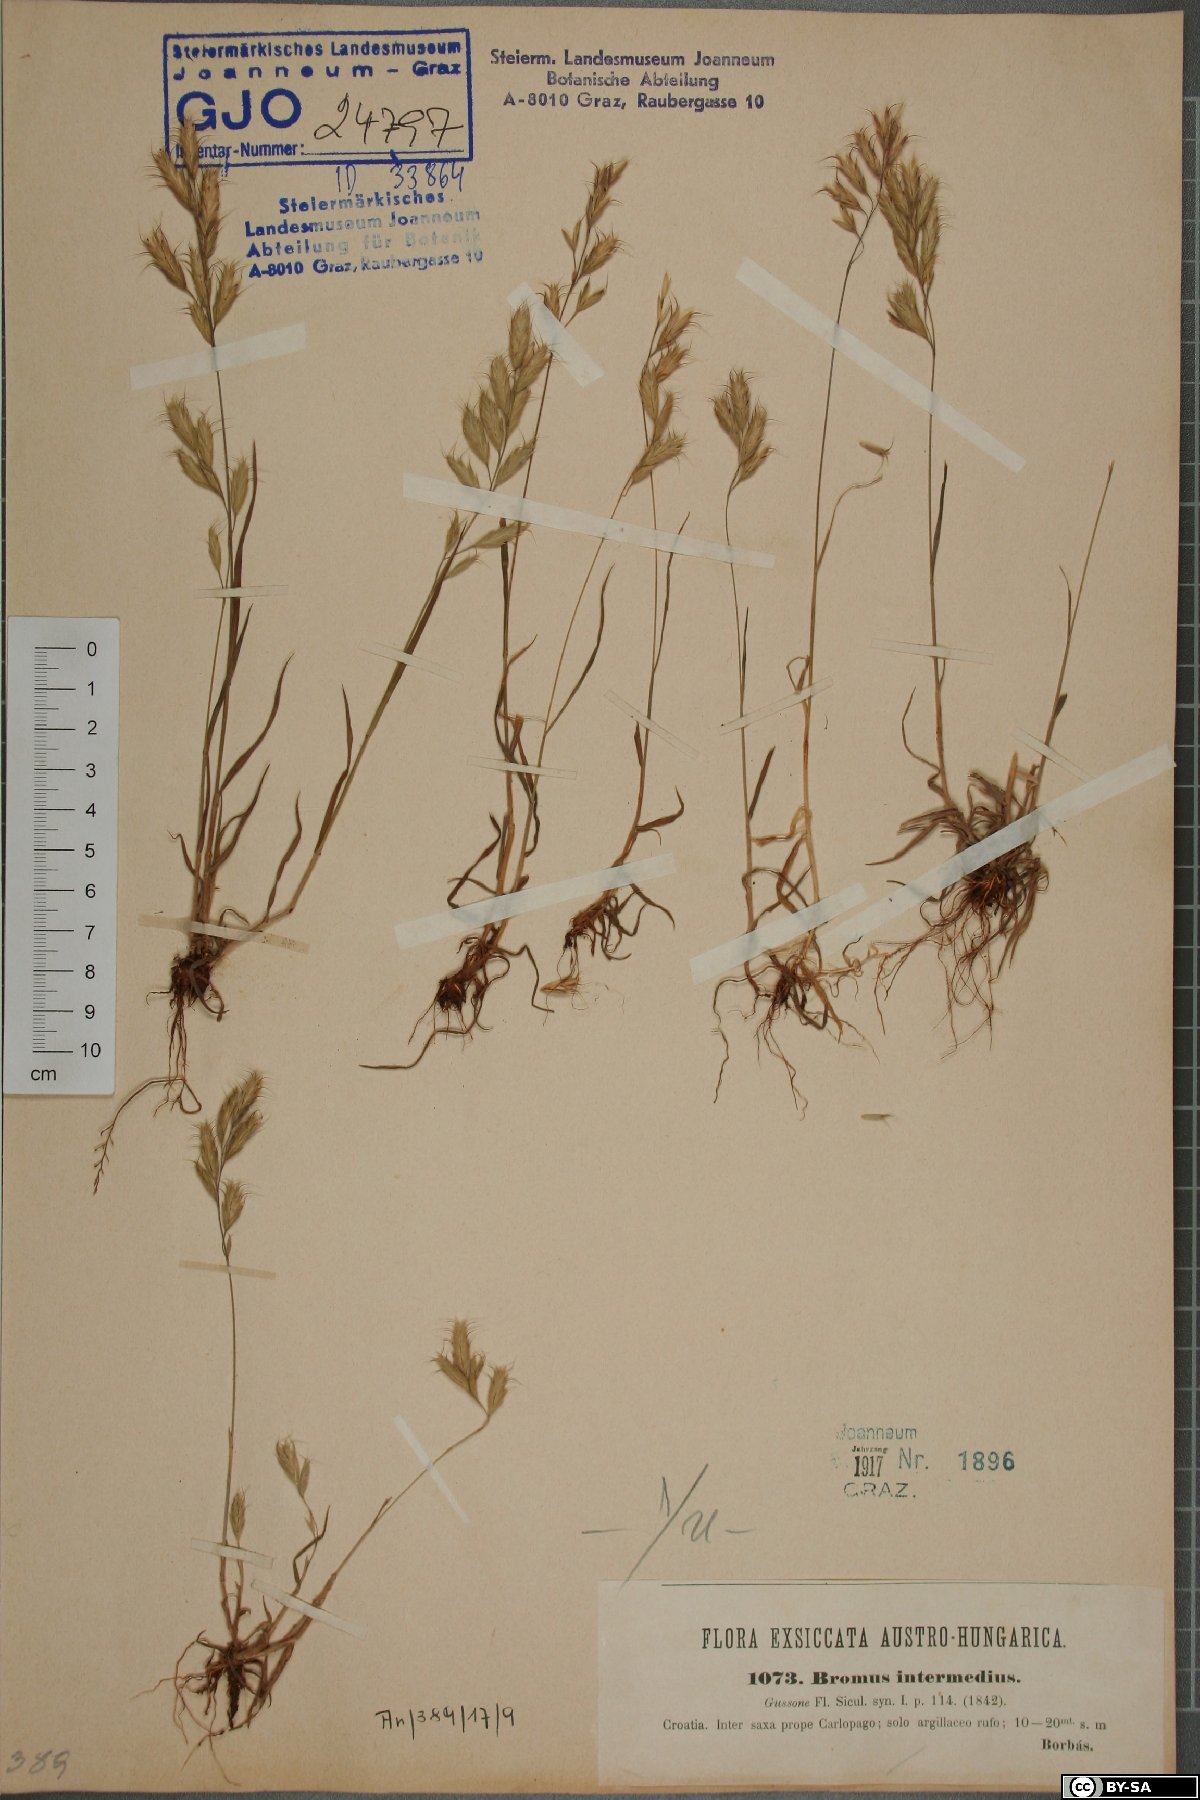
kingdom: Plantae
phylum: Tracheophyta
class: Liliopsida
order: Poales
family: Poaceae
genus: Bromus
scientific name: Bromus intermedius
